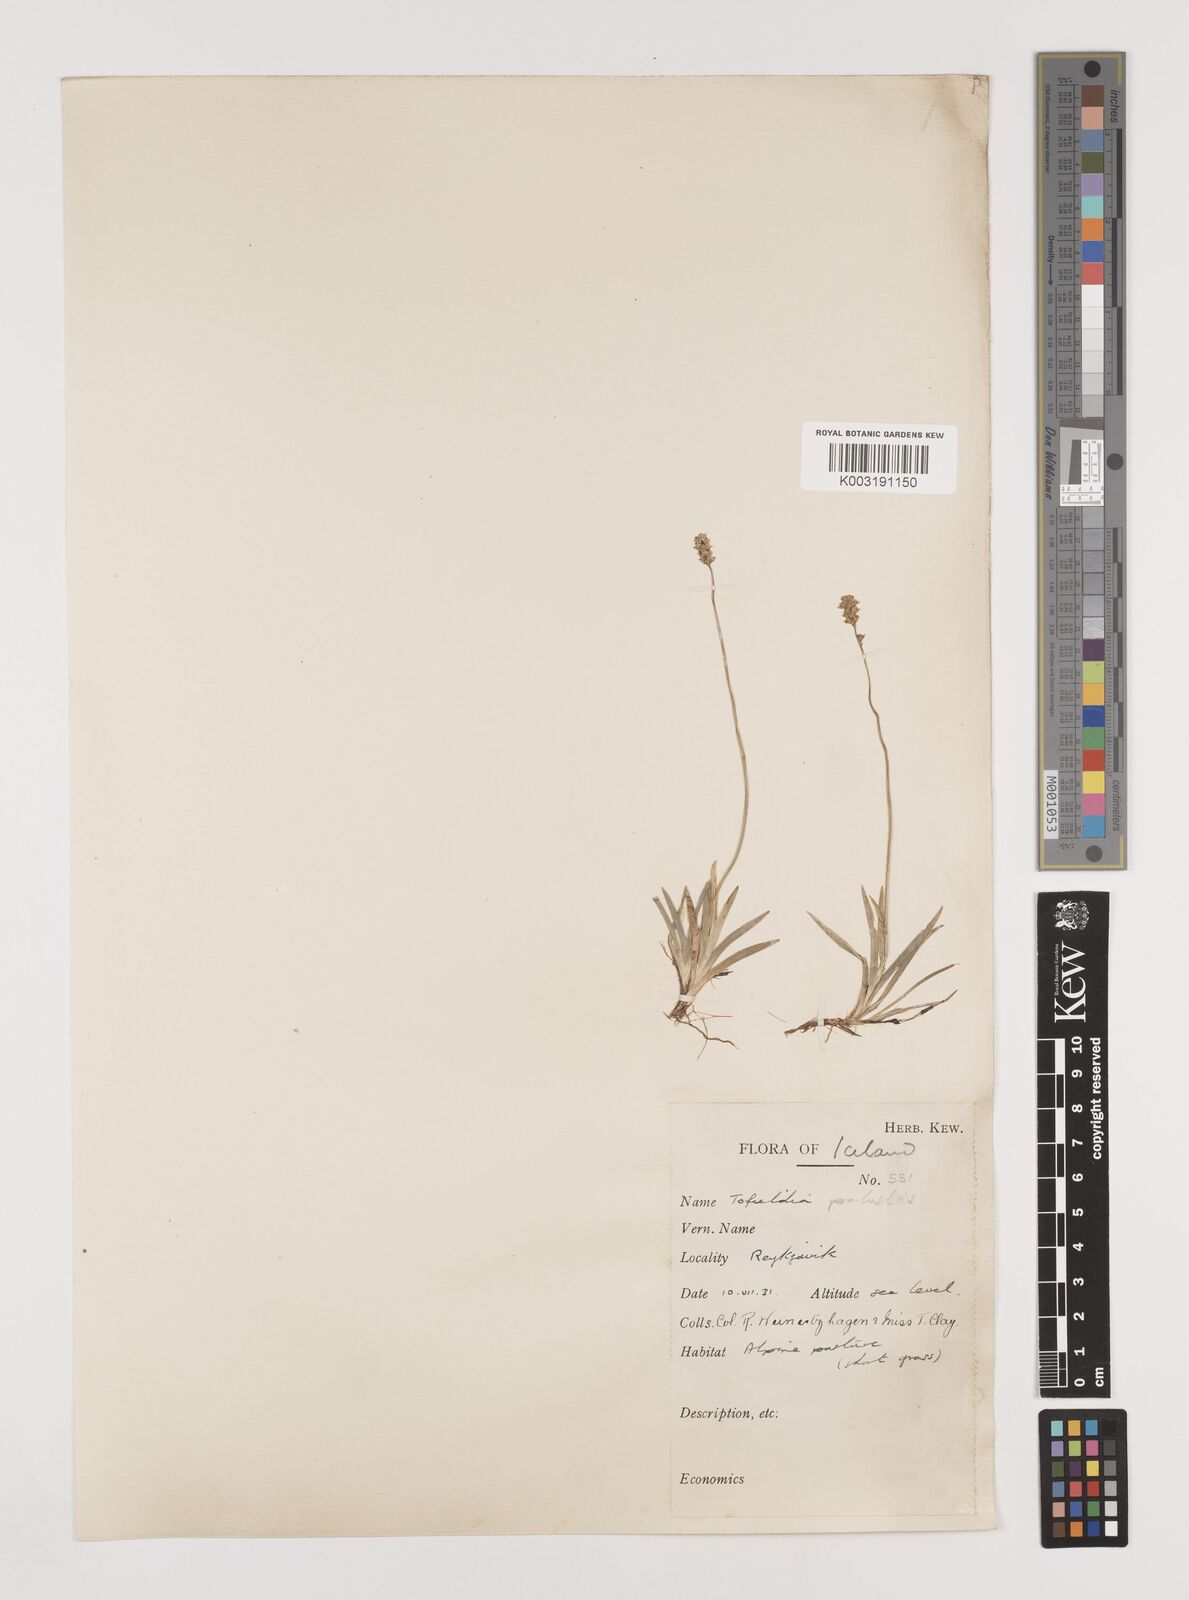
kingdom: Plantae
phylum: Tracheophyta
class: Liliopsida
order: Alismatales
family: Tofieldiaceae
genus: Tofieldia
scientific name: Tofieldia pusilla
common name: Scottish false asphodel
